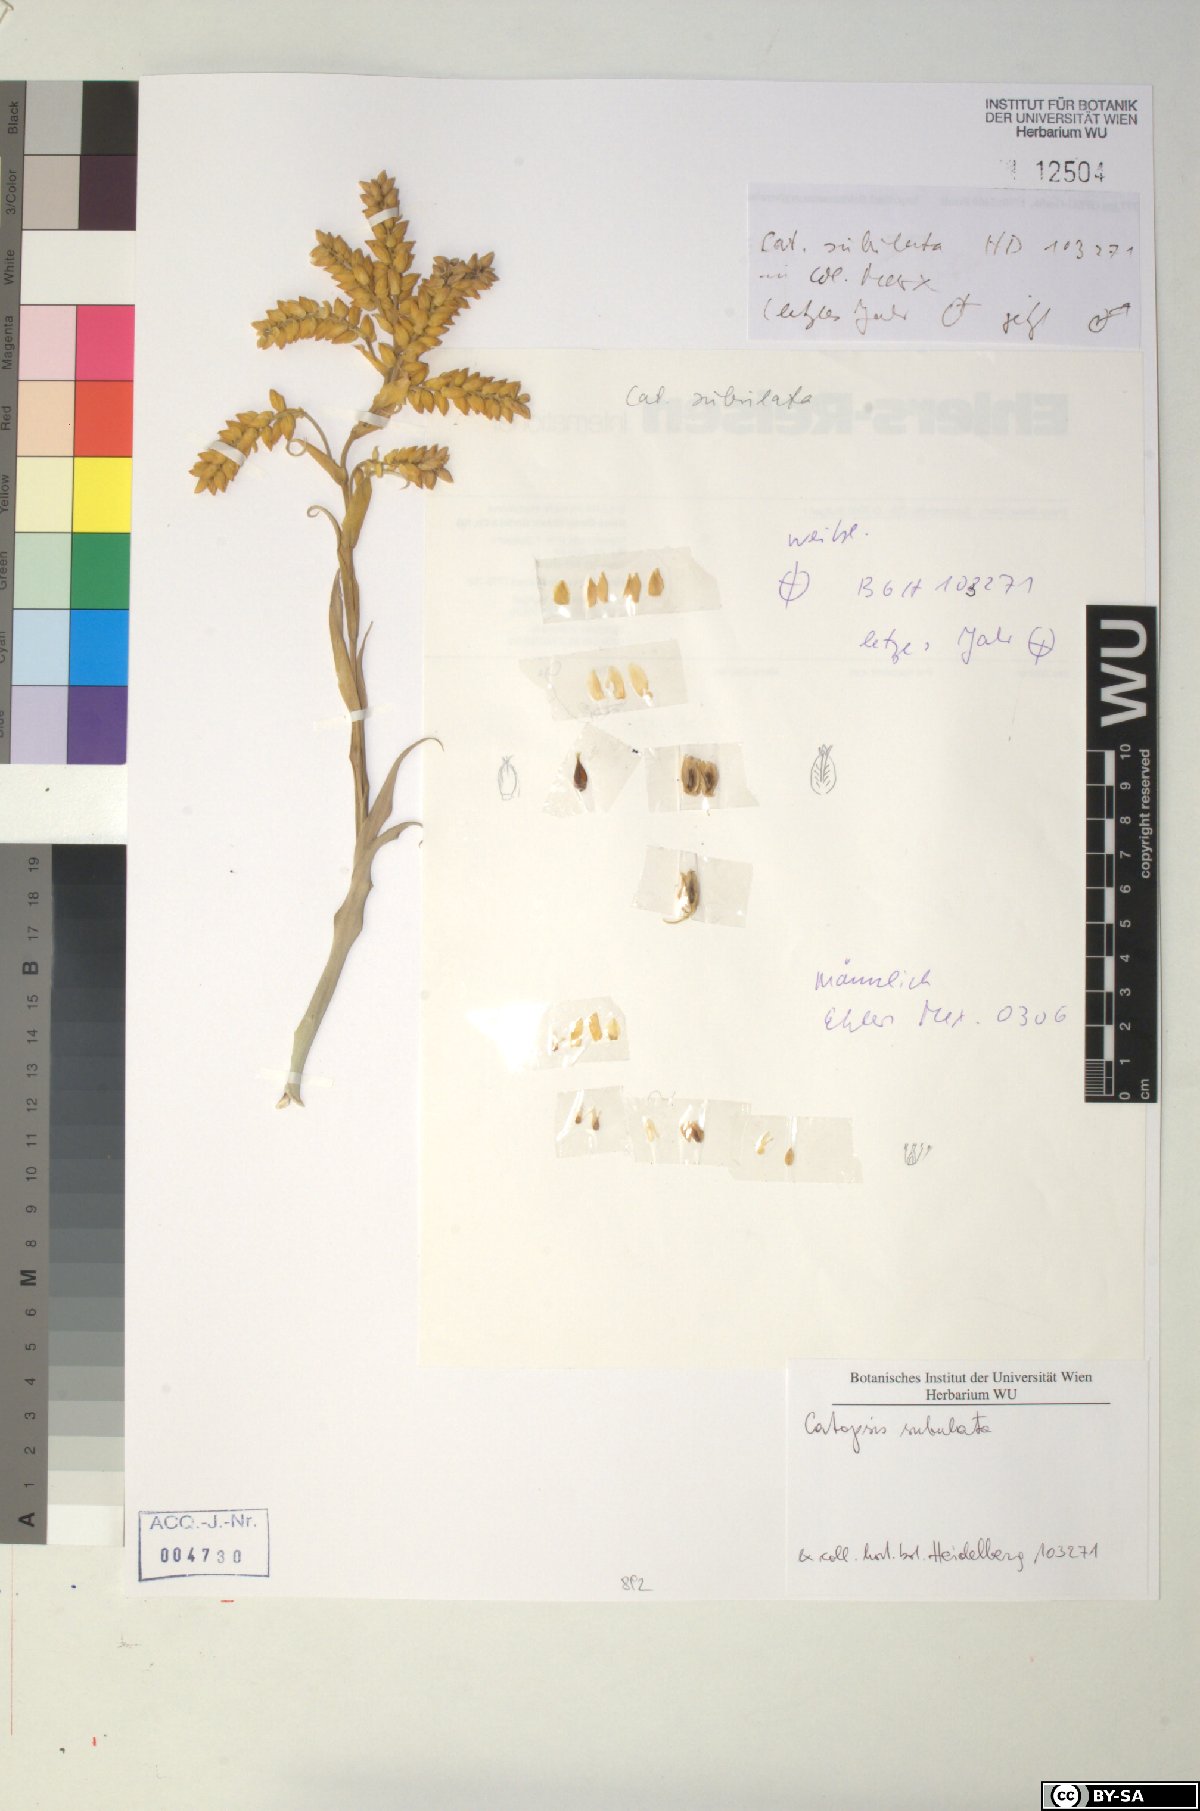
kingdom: Plantae
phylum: Tracheophyta
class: Liliopsida
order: Poales
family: Bromeliaceae
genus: Catopsis
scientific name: Catopsis subulata
